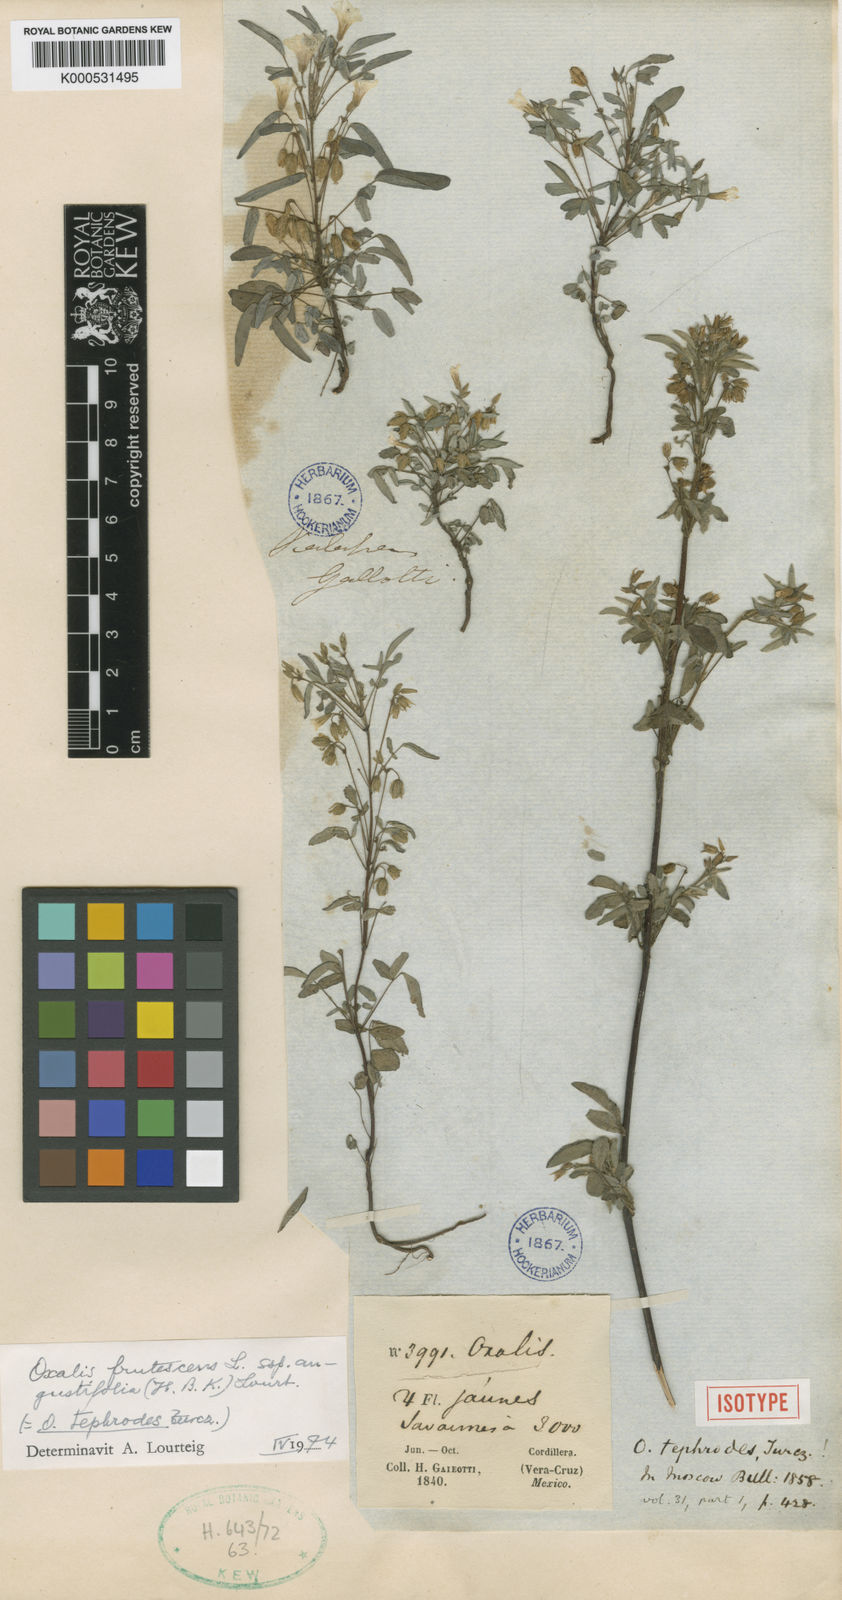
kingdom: Plantae
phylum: Tracheophyta
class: Magnoliopsida
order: Oxalidales
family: Oxalidaceae
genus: Oxalis
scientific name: Oxalis frutescens
